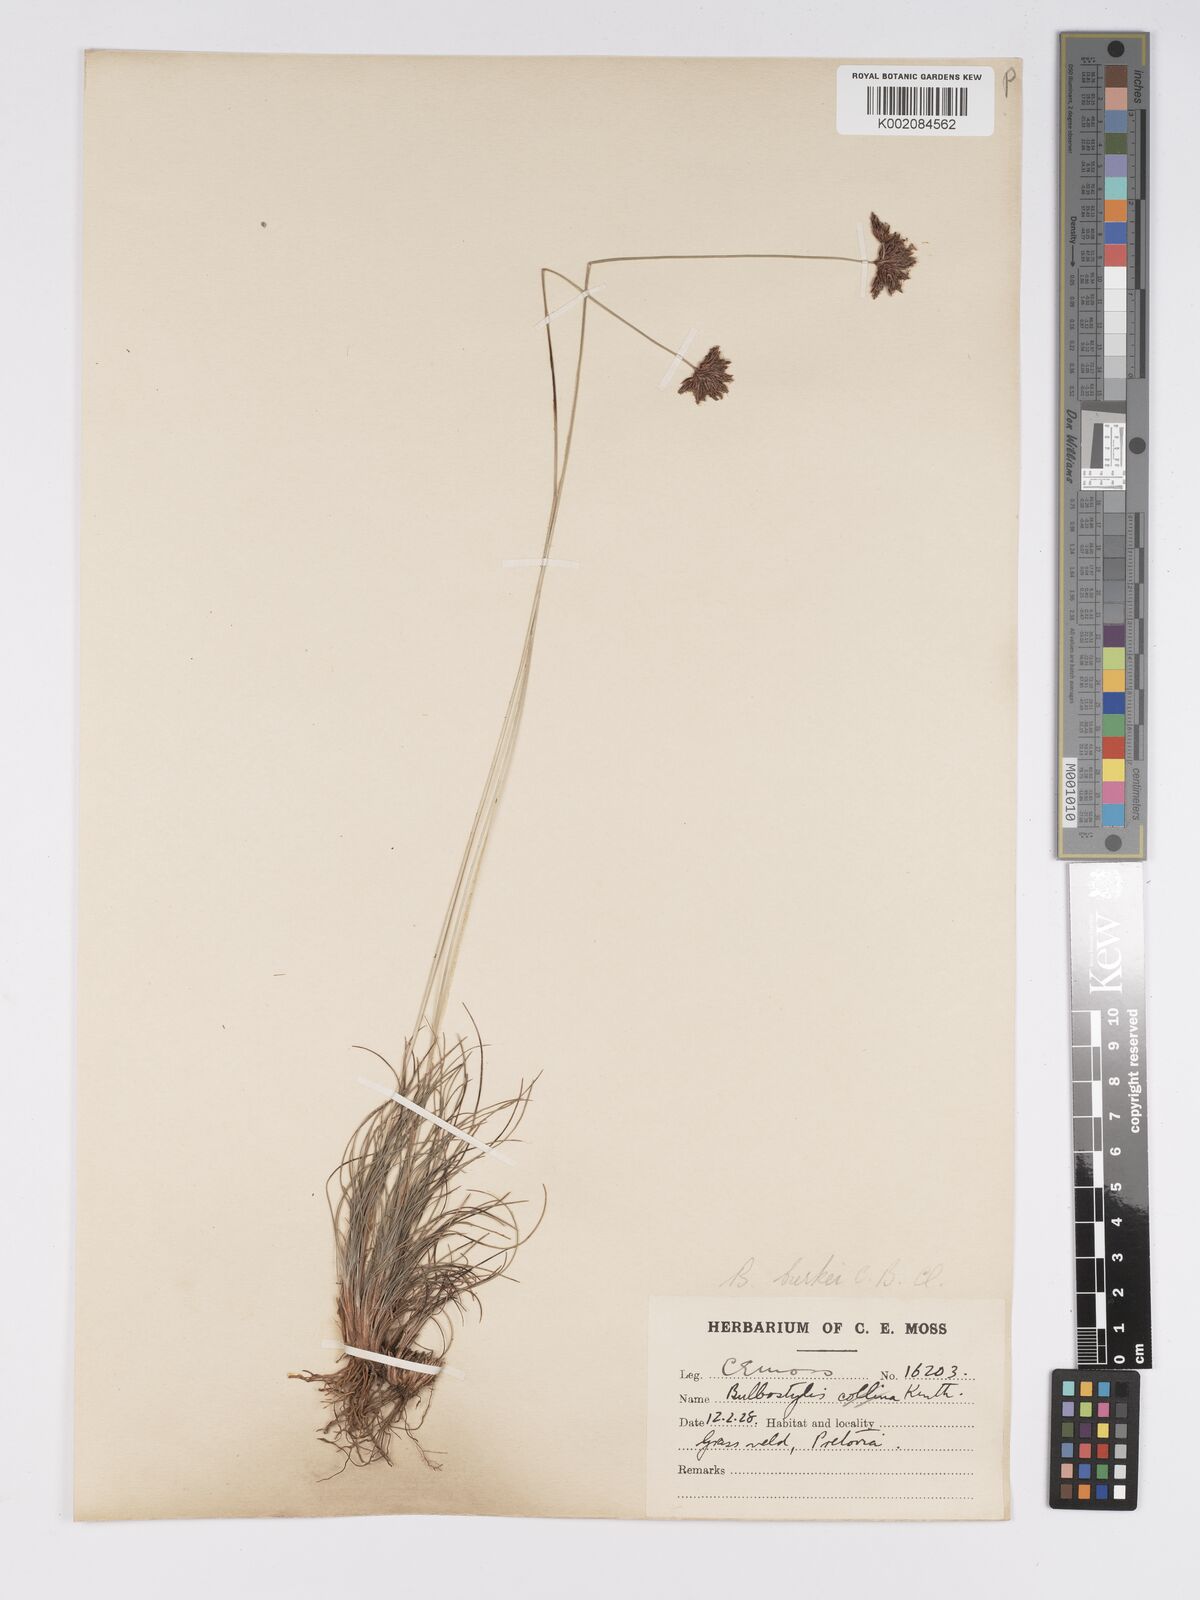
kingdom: Plantae
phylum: Tracheophyta
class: Liliopsida
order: Poales
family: Cyperaceae
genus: Bulbostylis
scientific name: Bulbostylis contexta
